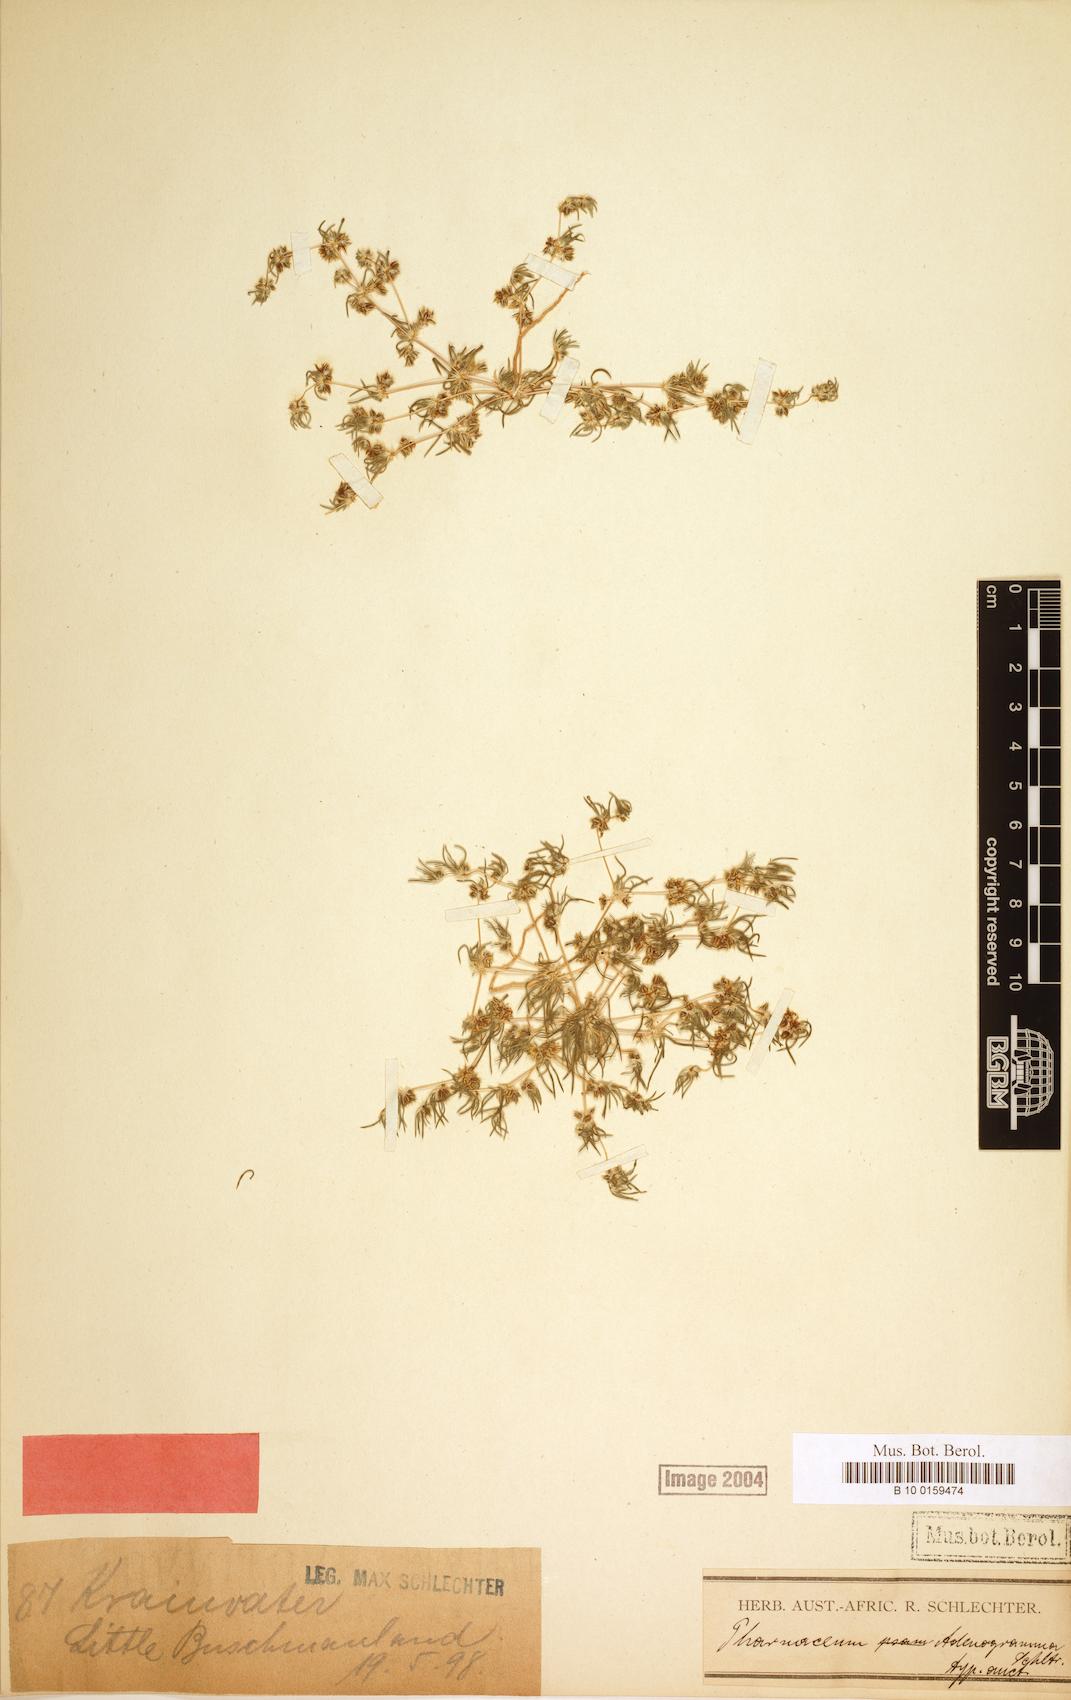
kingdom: Plantae
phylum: Tracheophyta
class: Magnoliopsida
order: Caryophyllales
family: Molluginaceae
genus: Pharnaceum
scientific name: Pharnaceum
